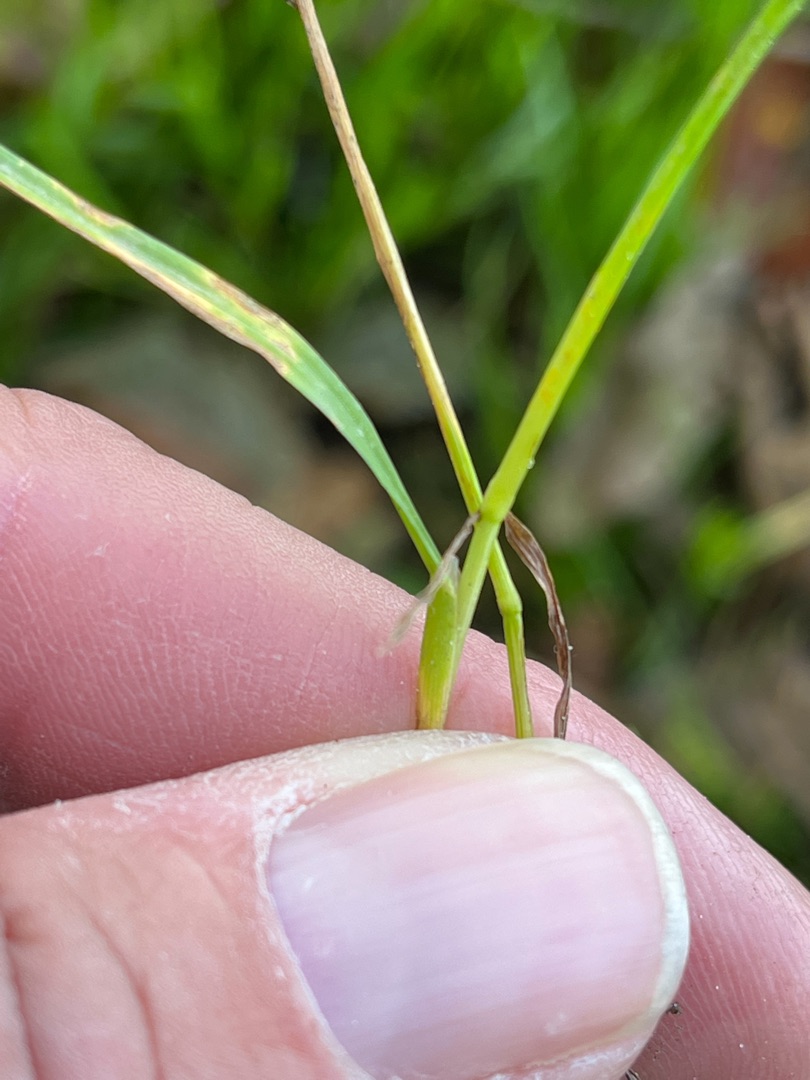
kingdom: Plantae
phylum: Tracheophyta
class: Liliopsida
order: Poales
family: Poaceae
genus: Poa
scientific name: Poa annua
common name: Enårig rapgræs
